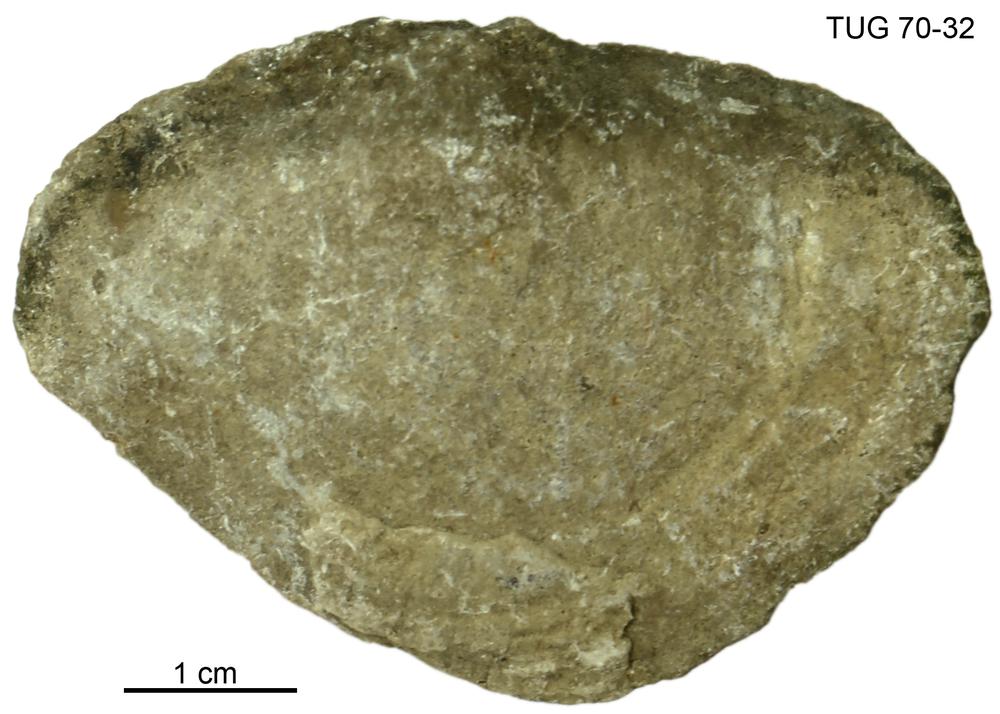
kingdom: Animalia
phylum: Mollusca
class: Bivalvia
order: Lucinida
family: Lucinidae
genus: Illionia
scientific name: Illionia Lucina prisca
